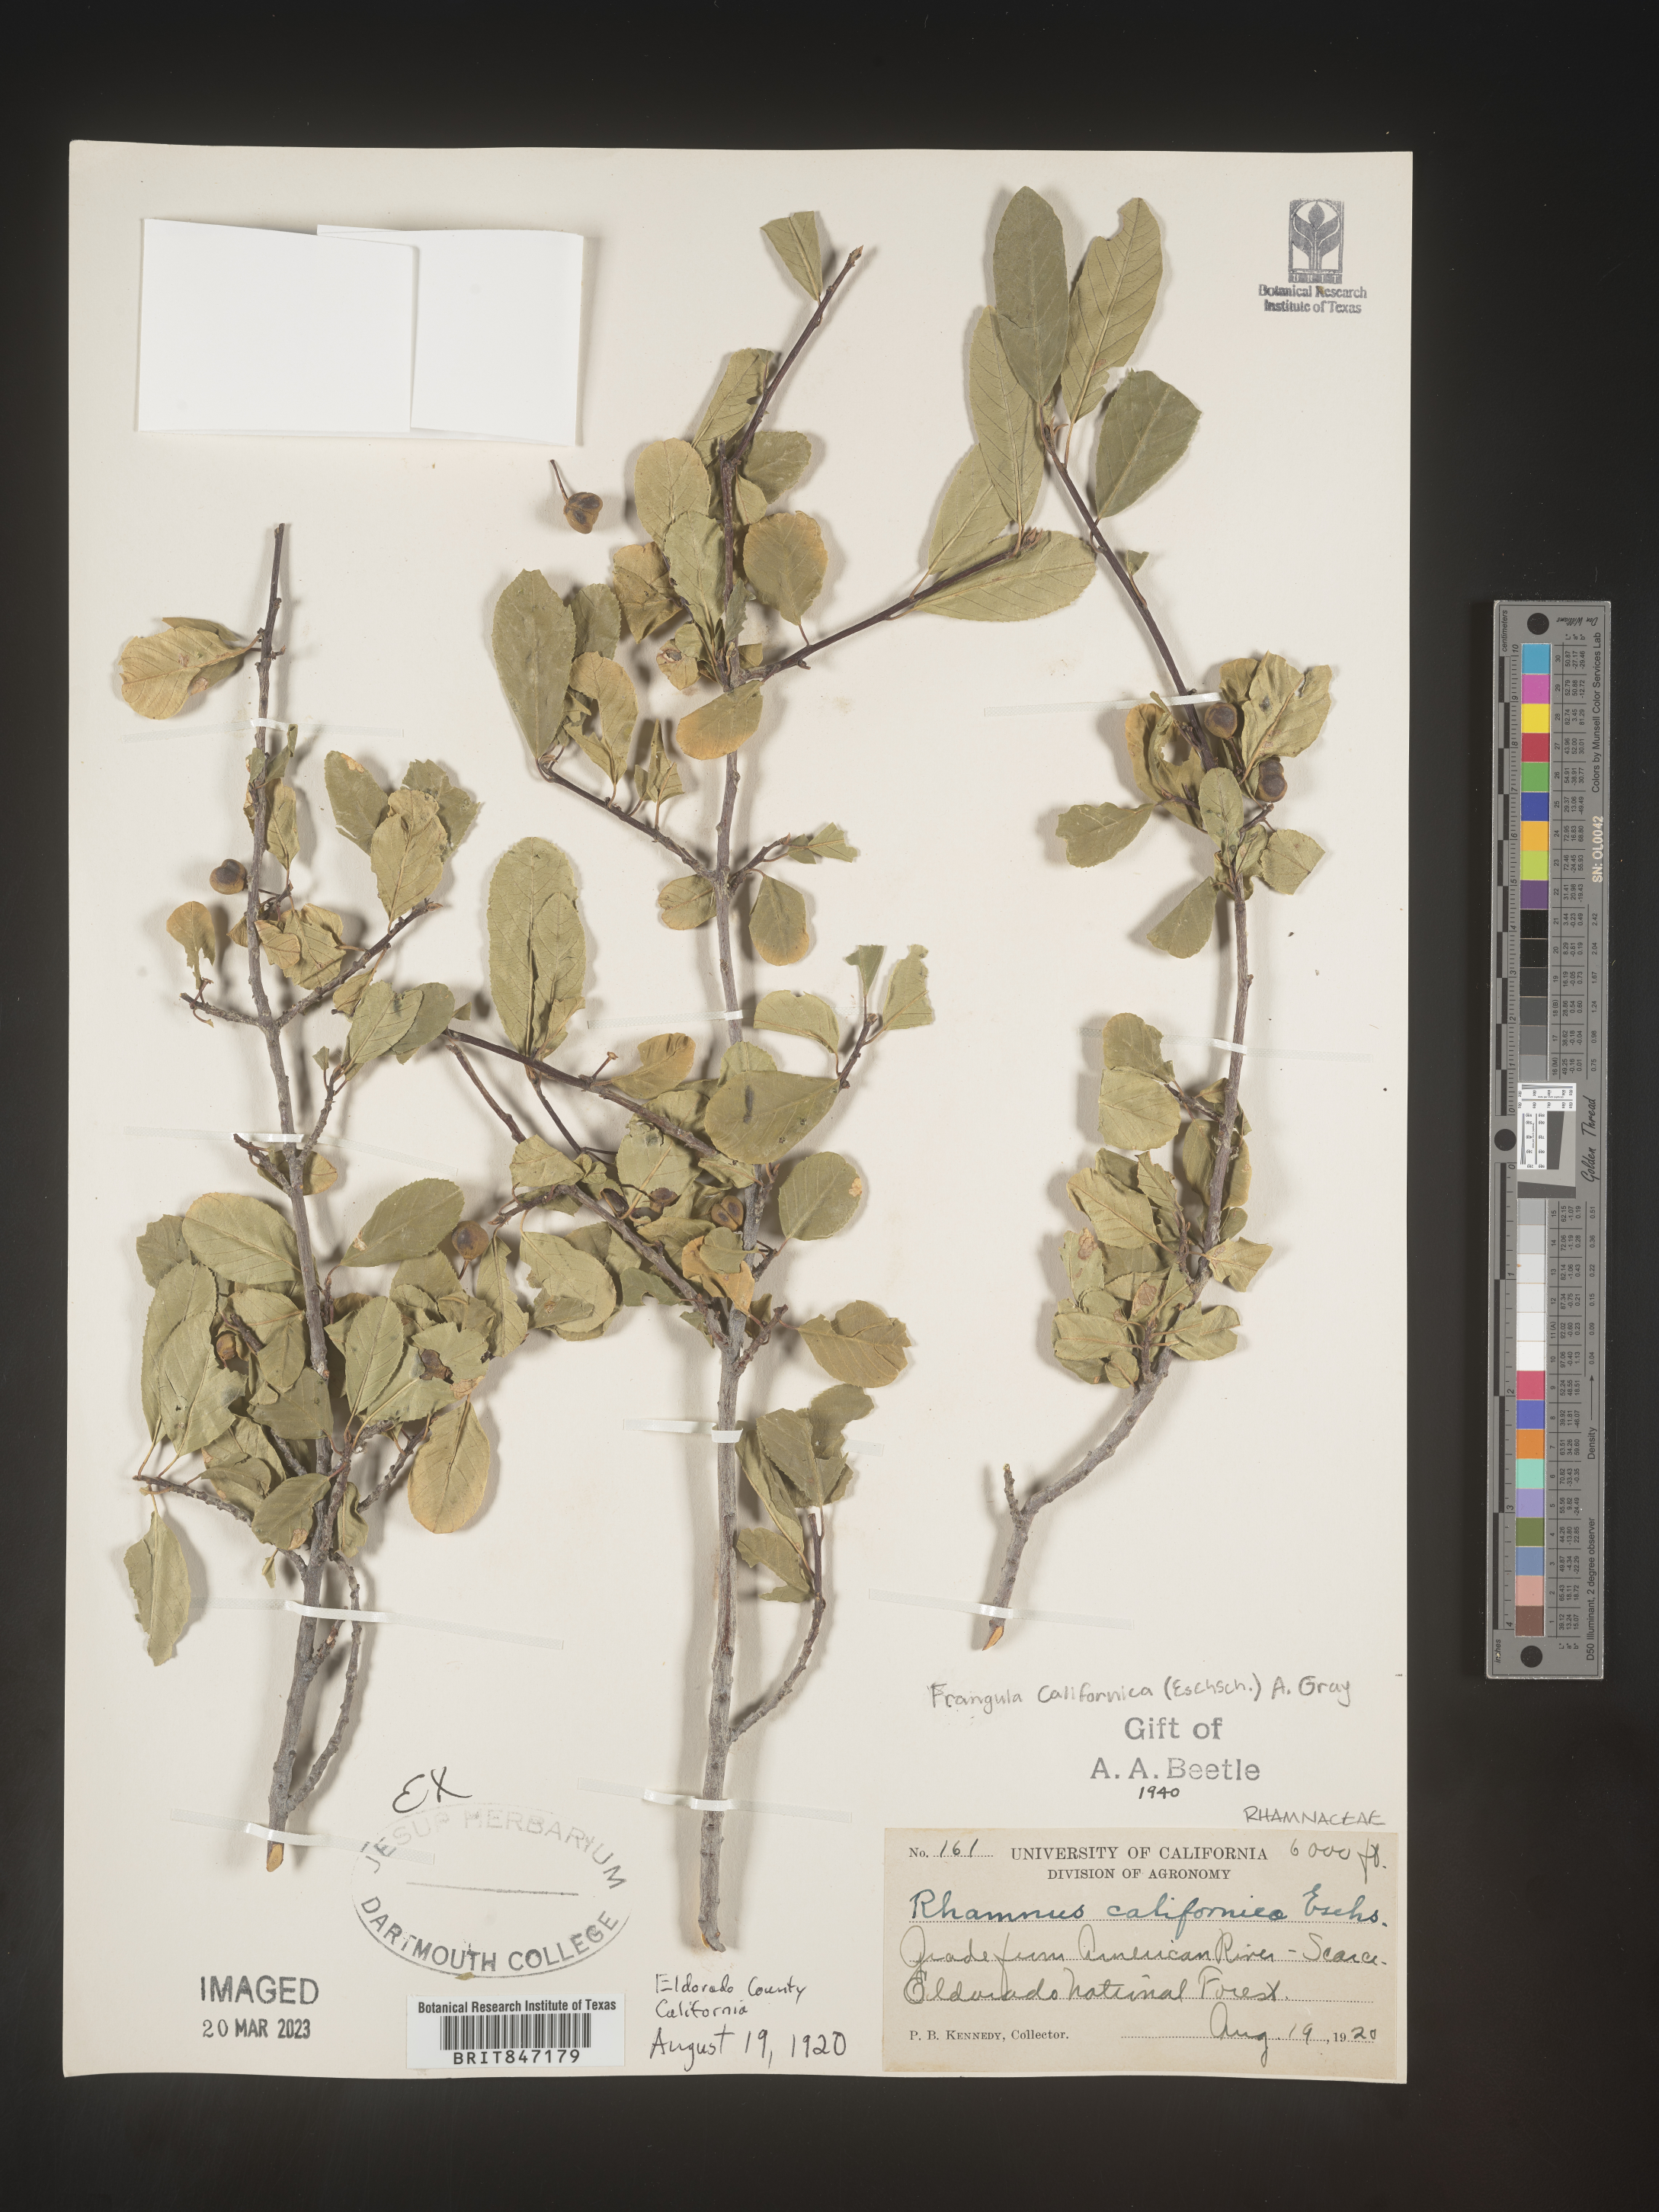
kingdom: Plantae
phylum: Tracheophyta
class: Magnoliopsida
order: Rosales
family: Rhamnaceae
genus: Frangula
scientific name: Frangula
